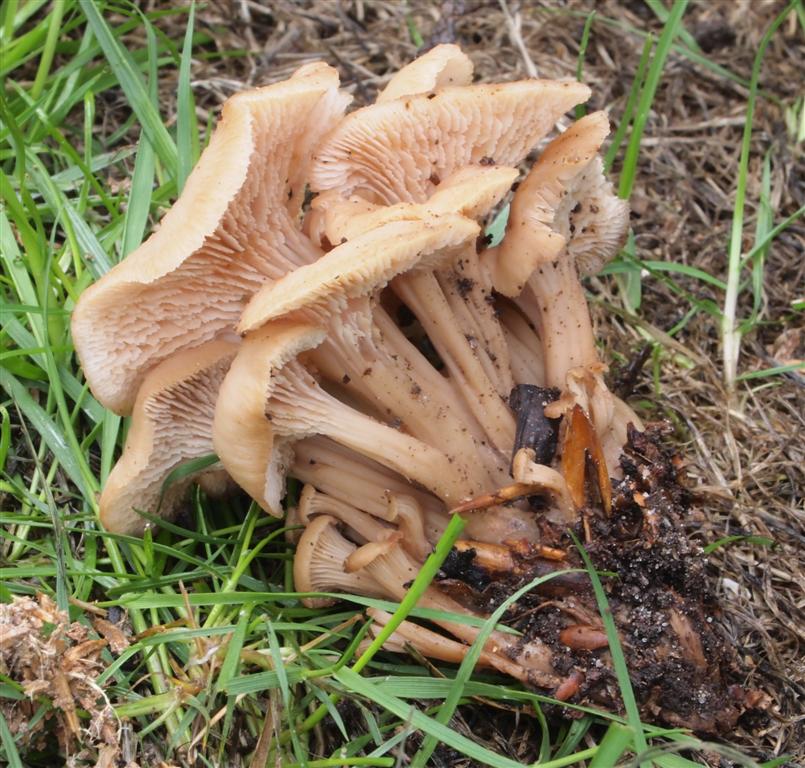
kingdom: Fungi
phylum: Basidiomycota
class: Agaricomycetes
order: Russulales
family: Auriscalpiaceae
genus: Lentinellus
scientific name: Lentinellus cochleatus
